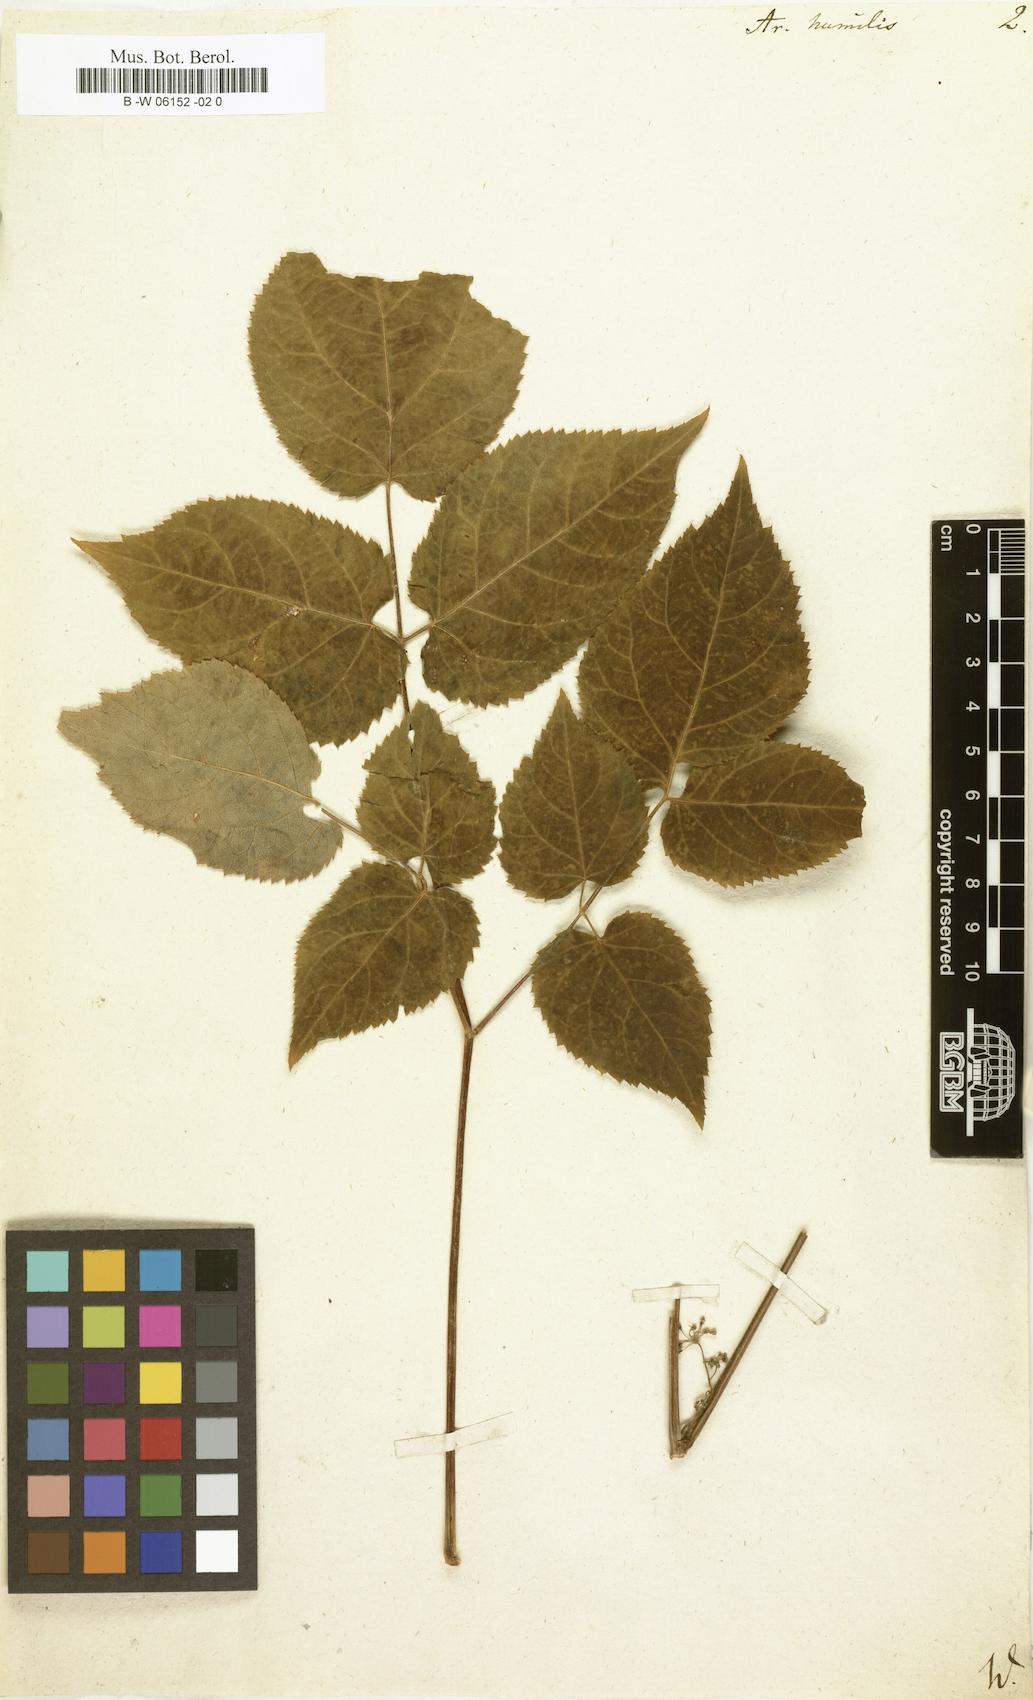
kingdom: Plantae
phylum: Tracheophyta
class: Magnoliopsida
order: Apiales
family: Araliaceae
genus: Aralia
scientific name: Aralia humilis
